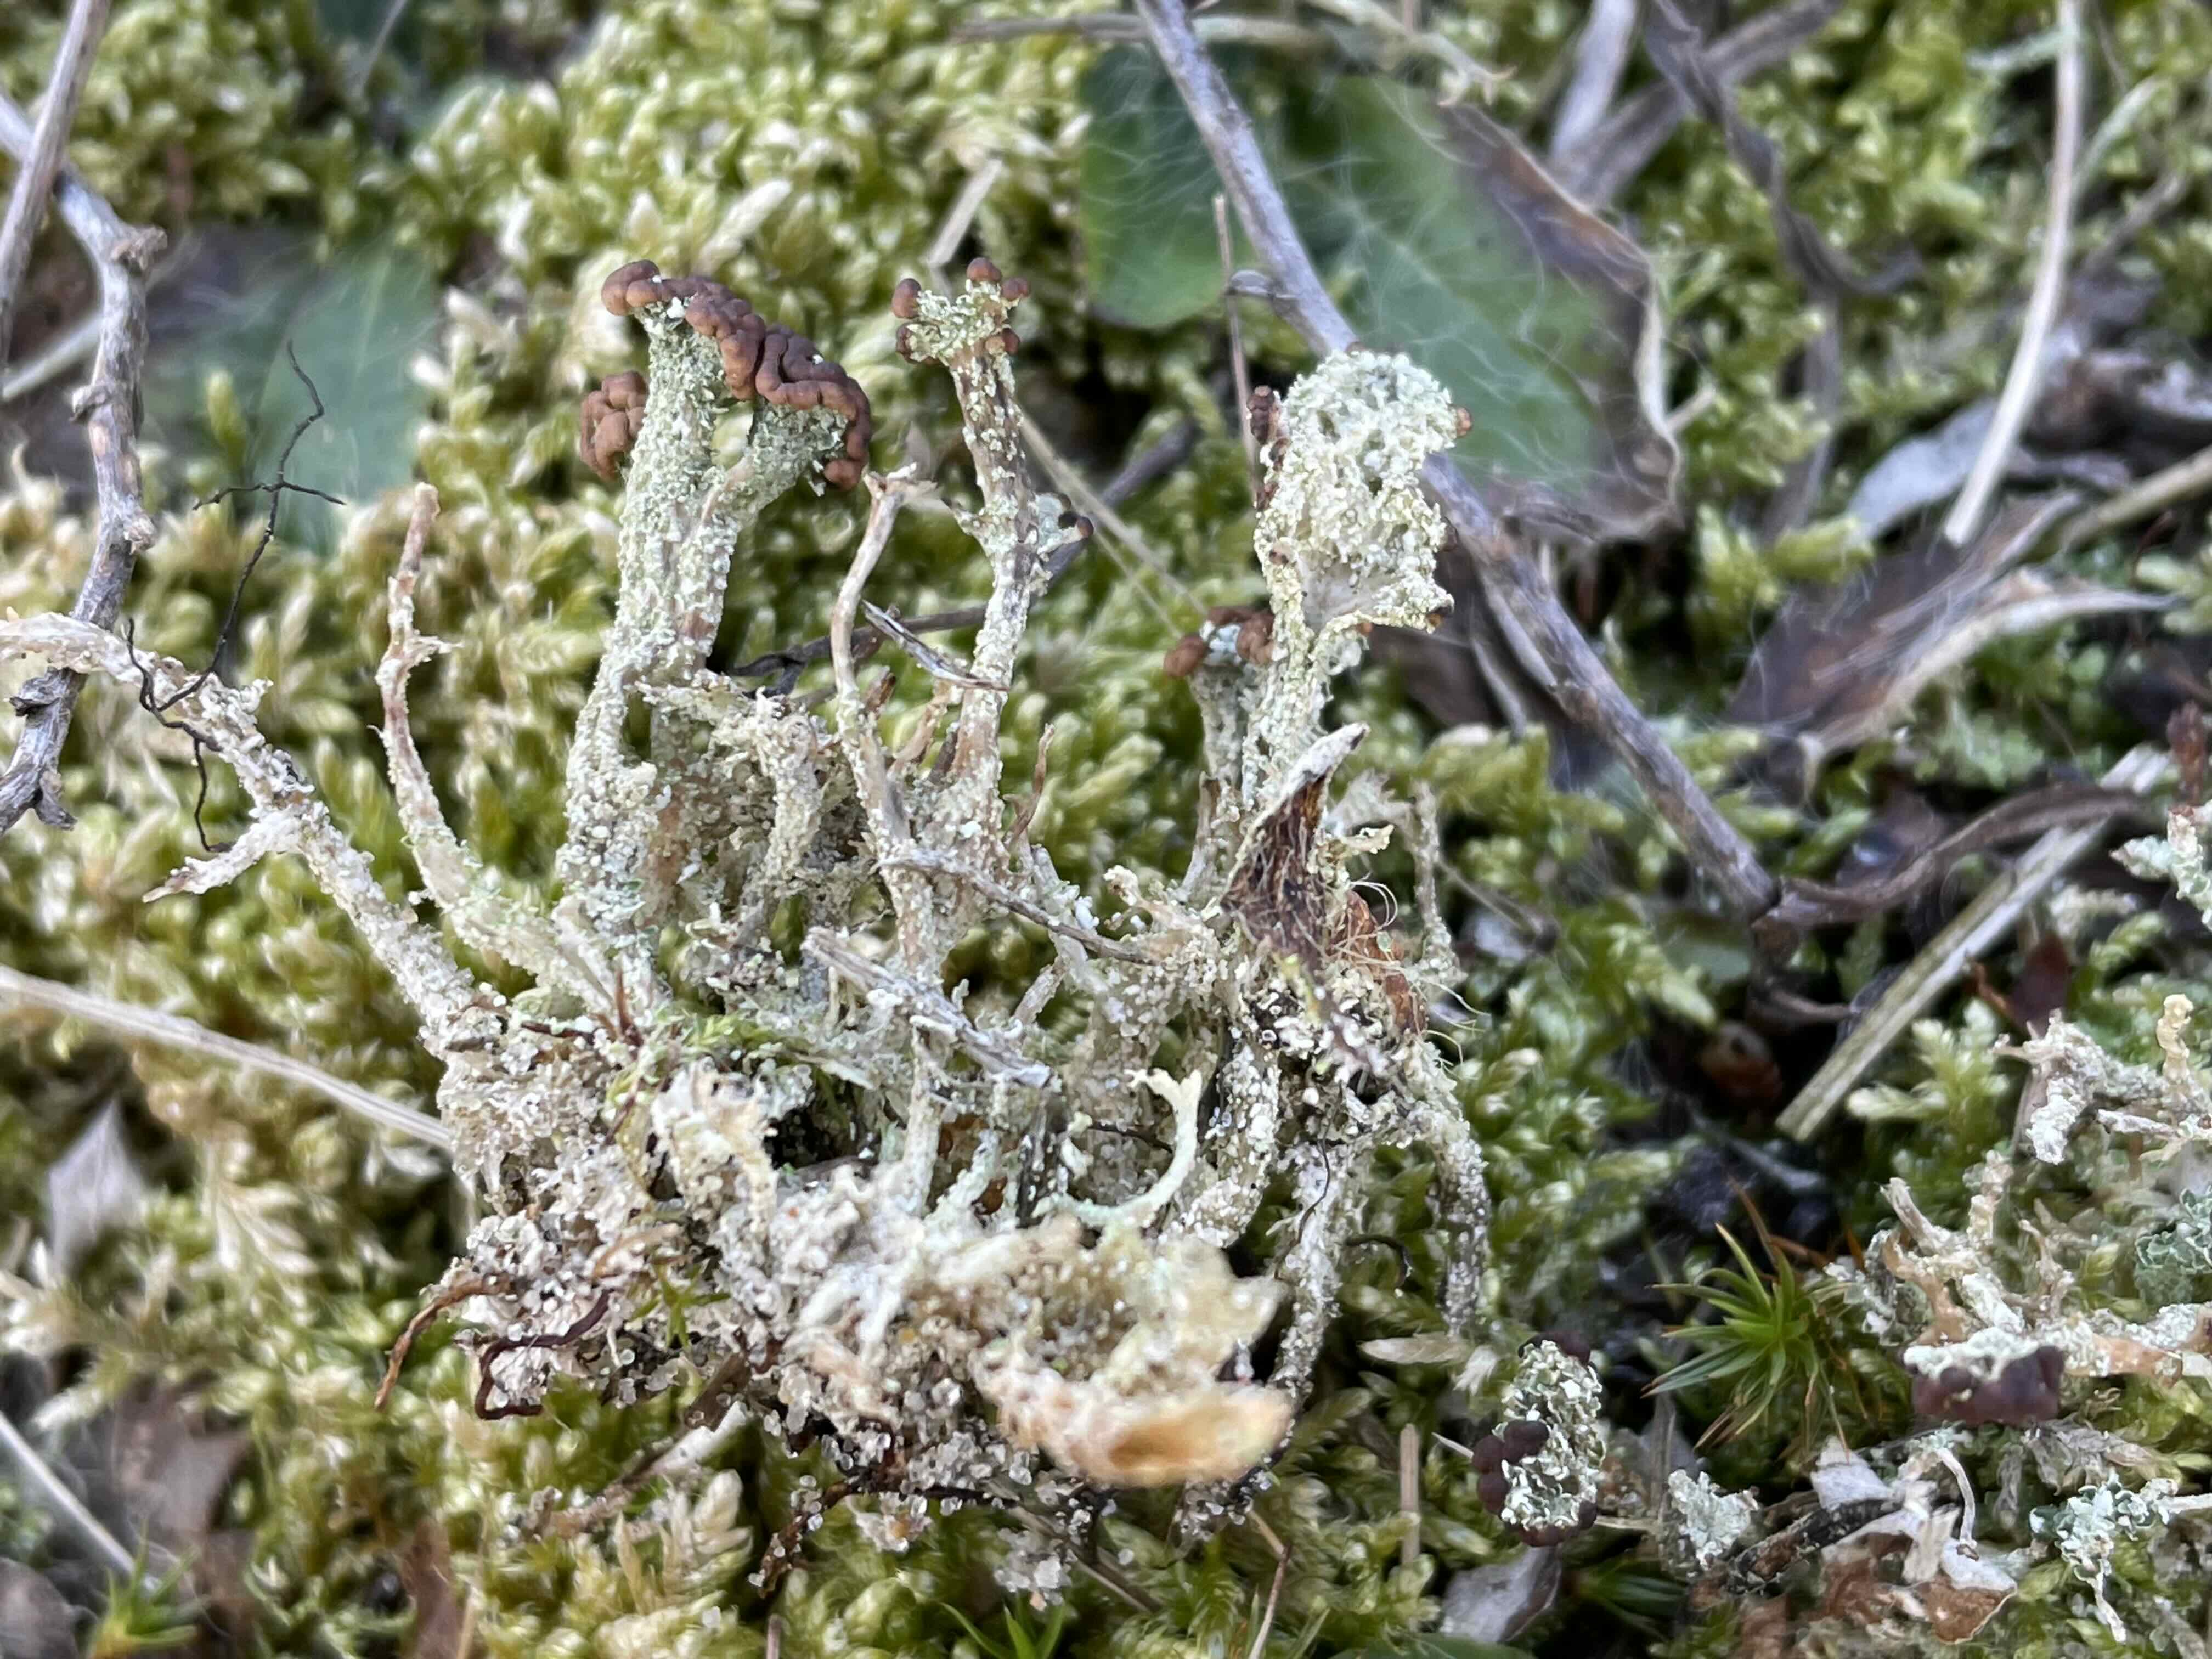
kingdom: Fungi
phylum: Ascomycota
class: Lecanoromycetes
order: Lecanorales
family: Cladoniaceae
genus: Cladonia
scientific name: Cladonia ramulosa
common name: kliddet bægerlav
